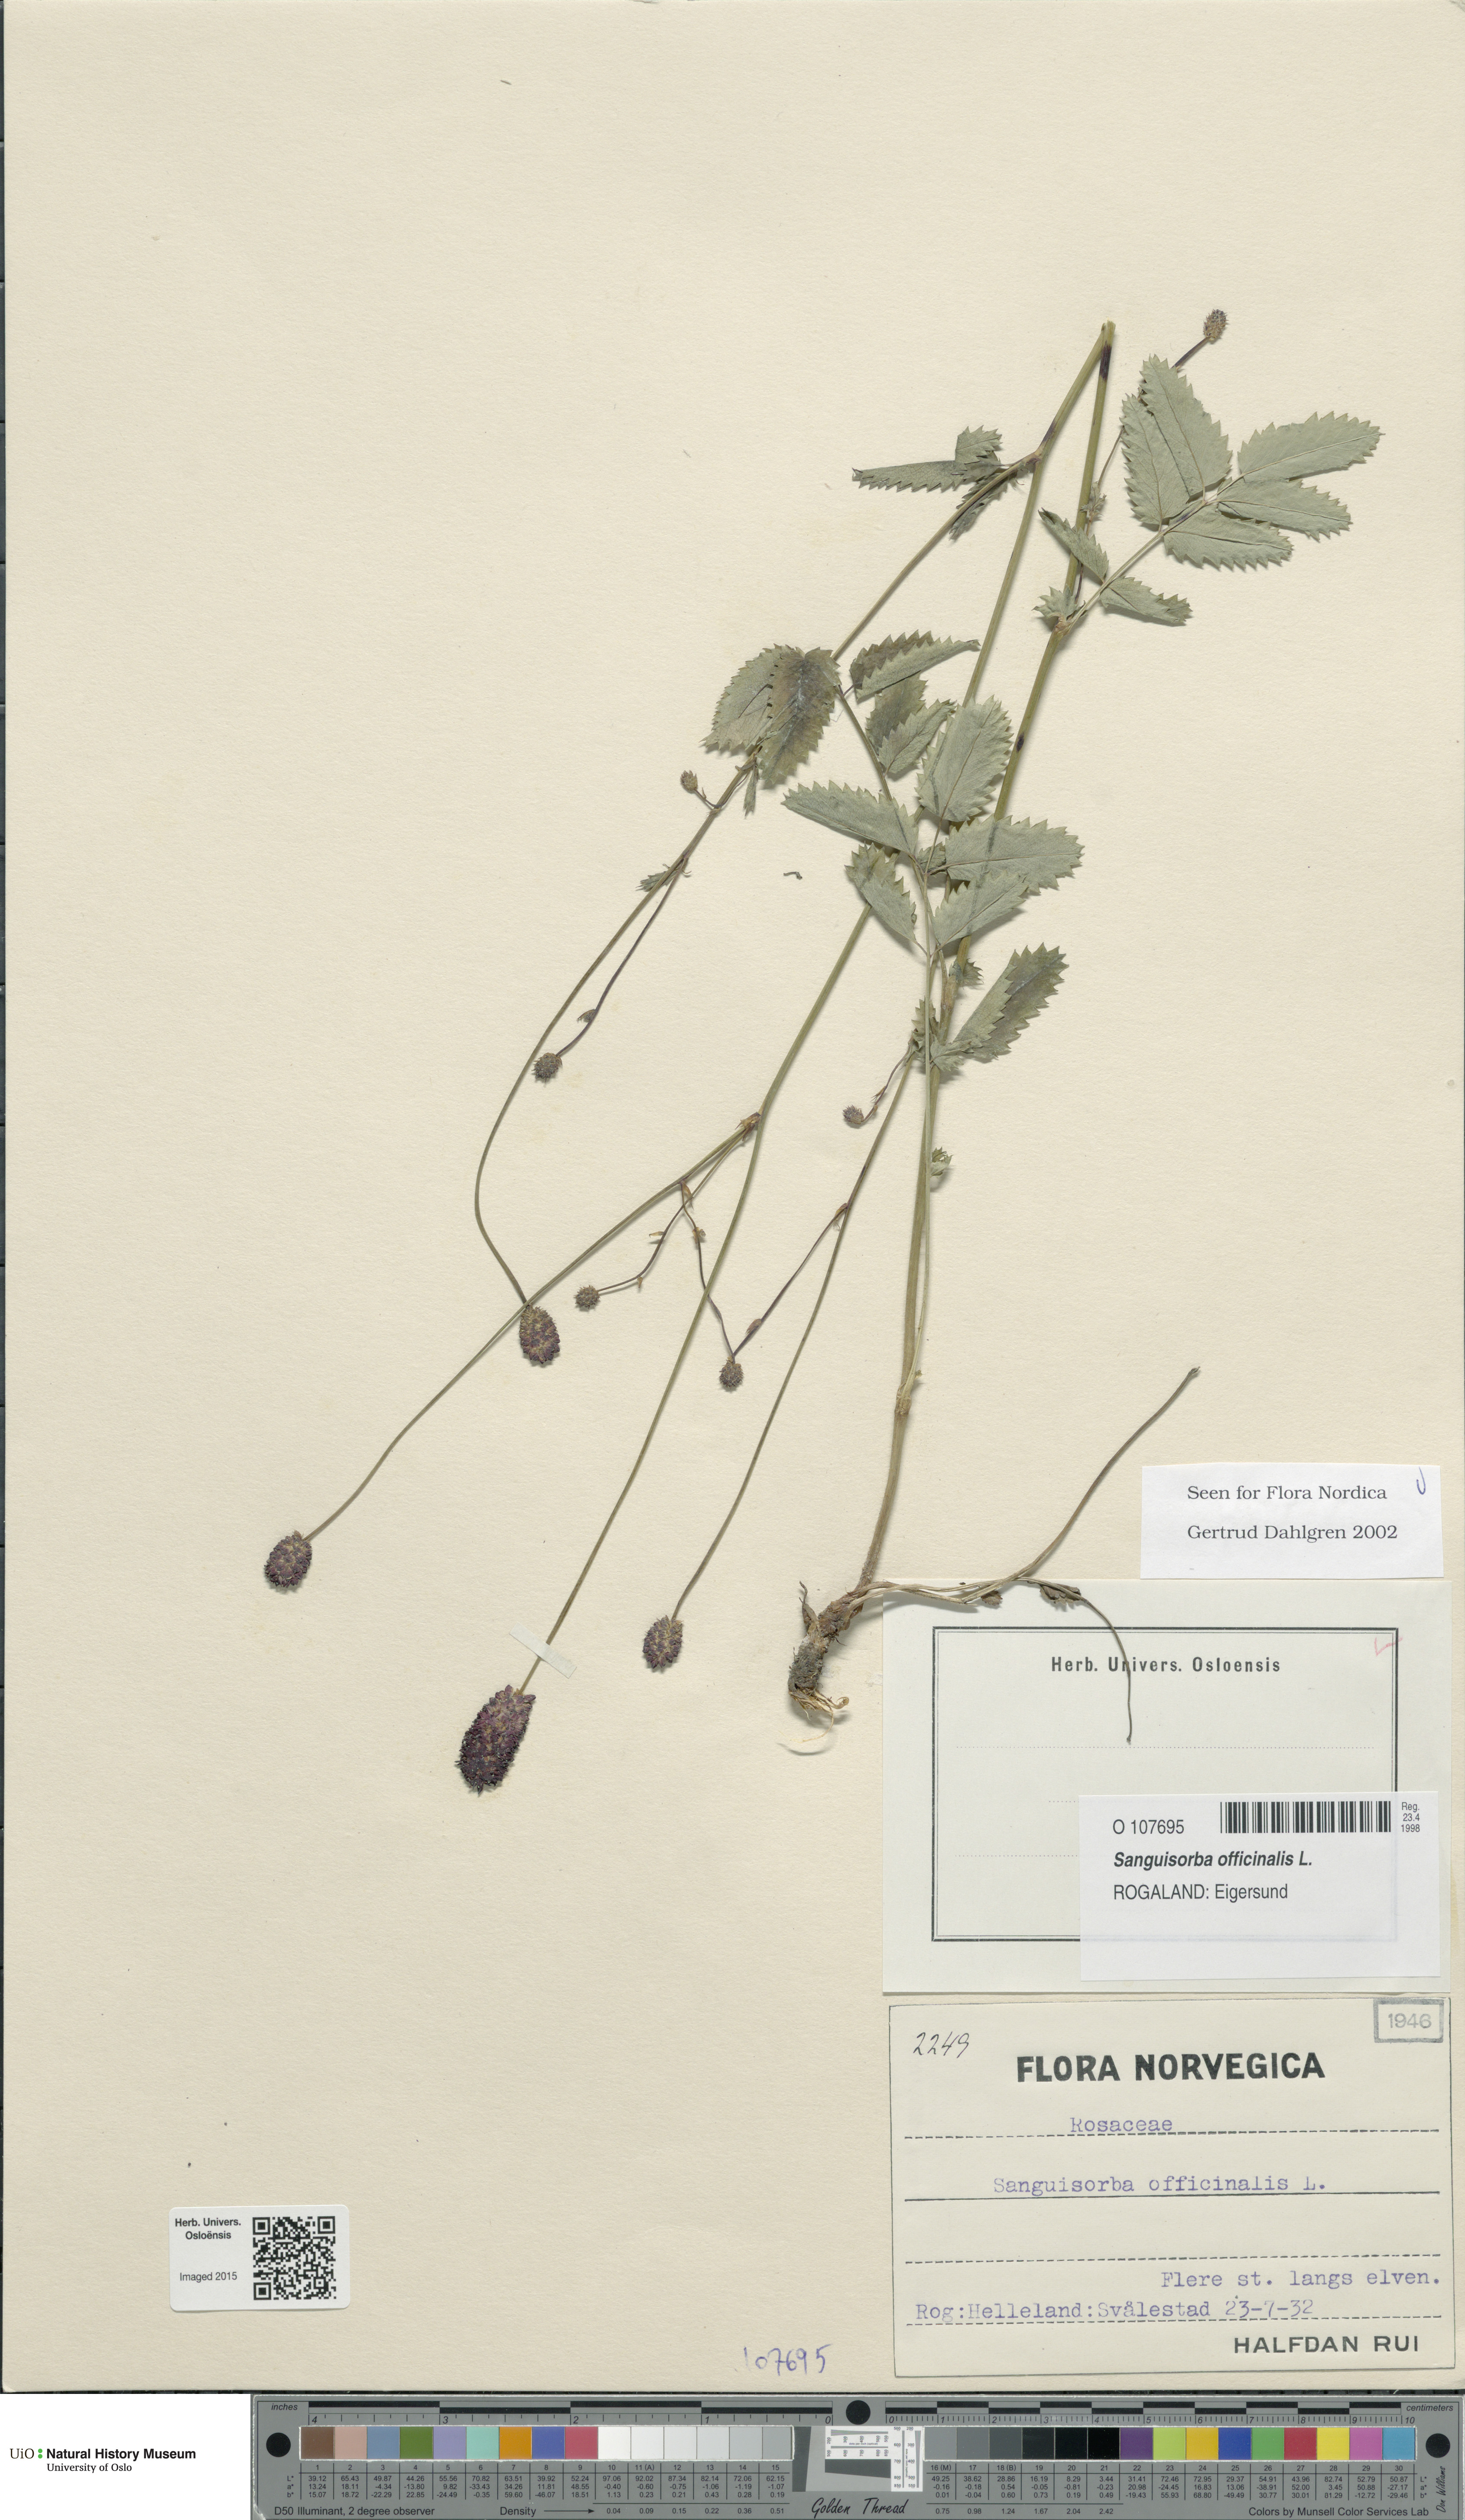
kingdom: Plantae
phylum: Tracheophyta
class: Magnoliopsida
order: Rosales
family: Rosaceae
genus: Sanguisorba
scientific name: Sanguisorba officinalis
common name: Great burnet
